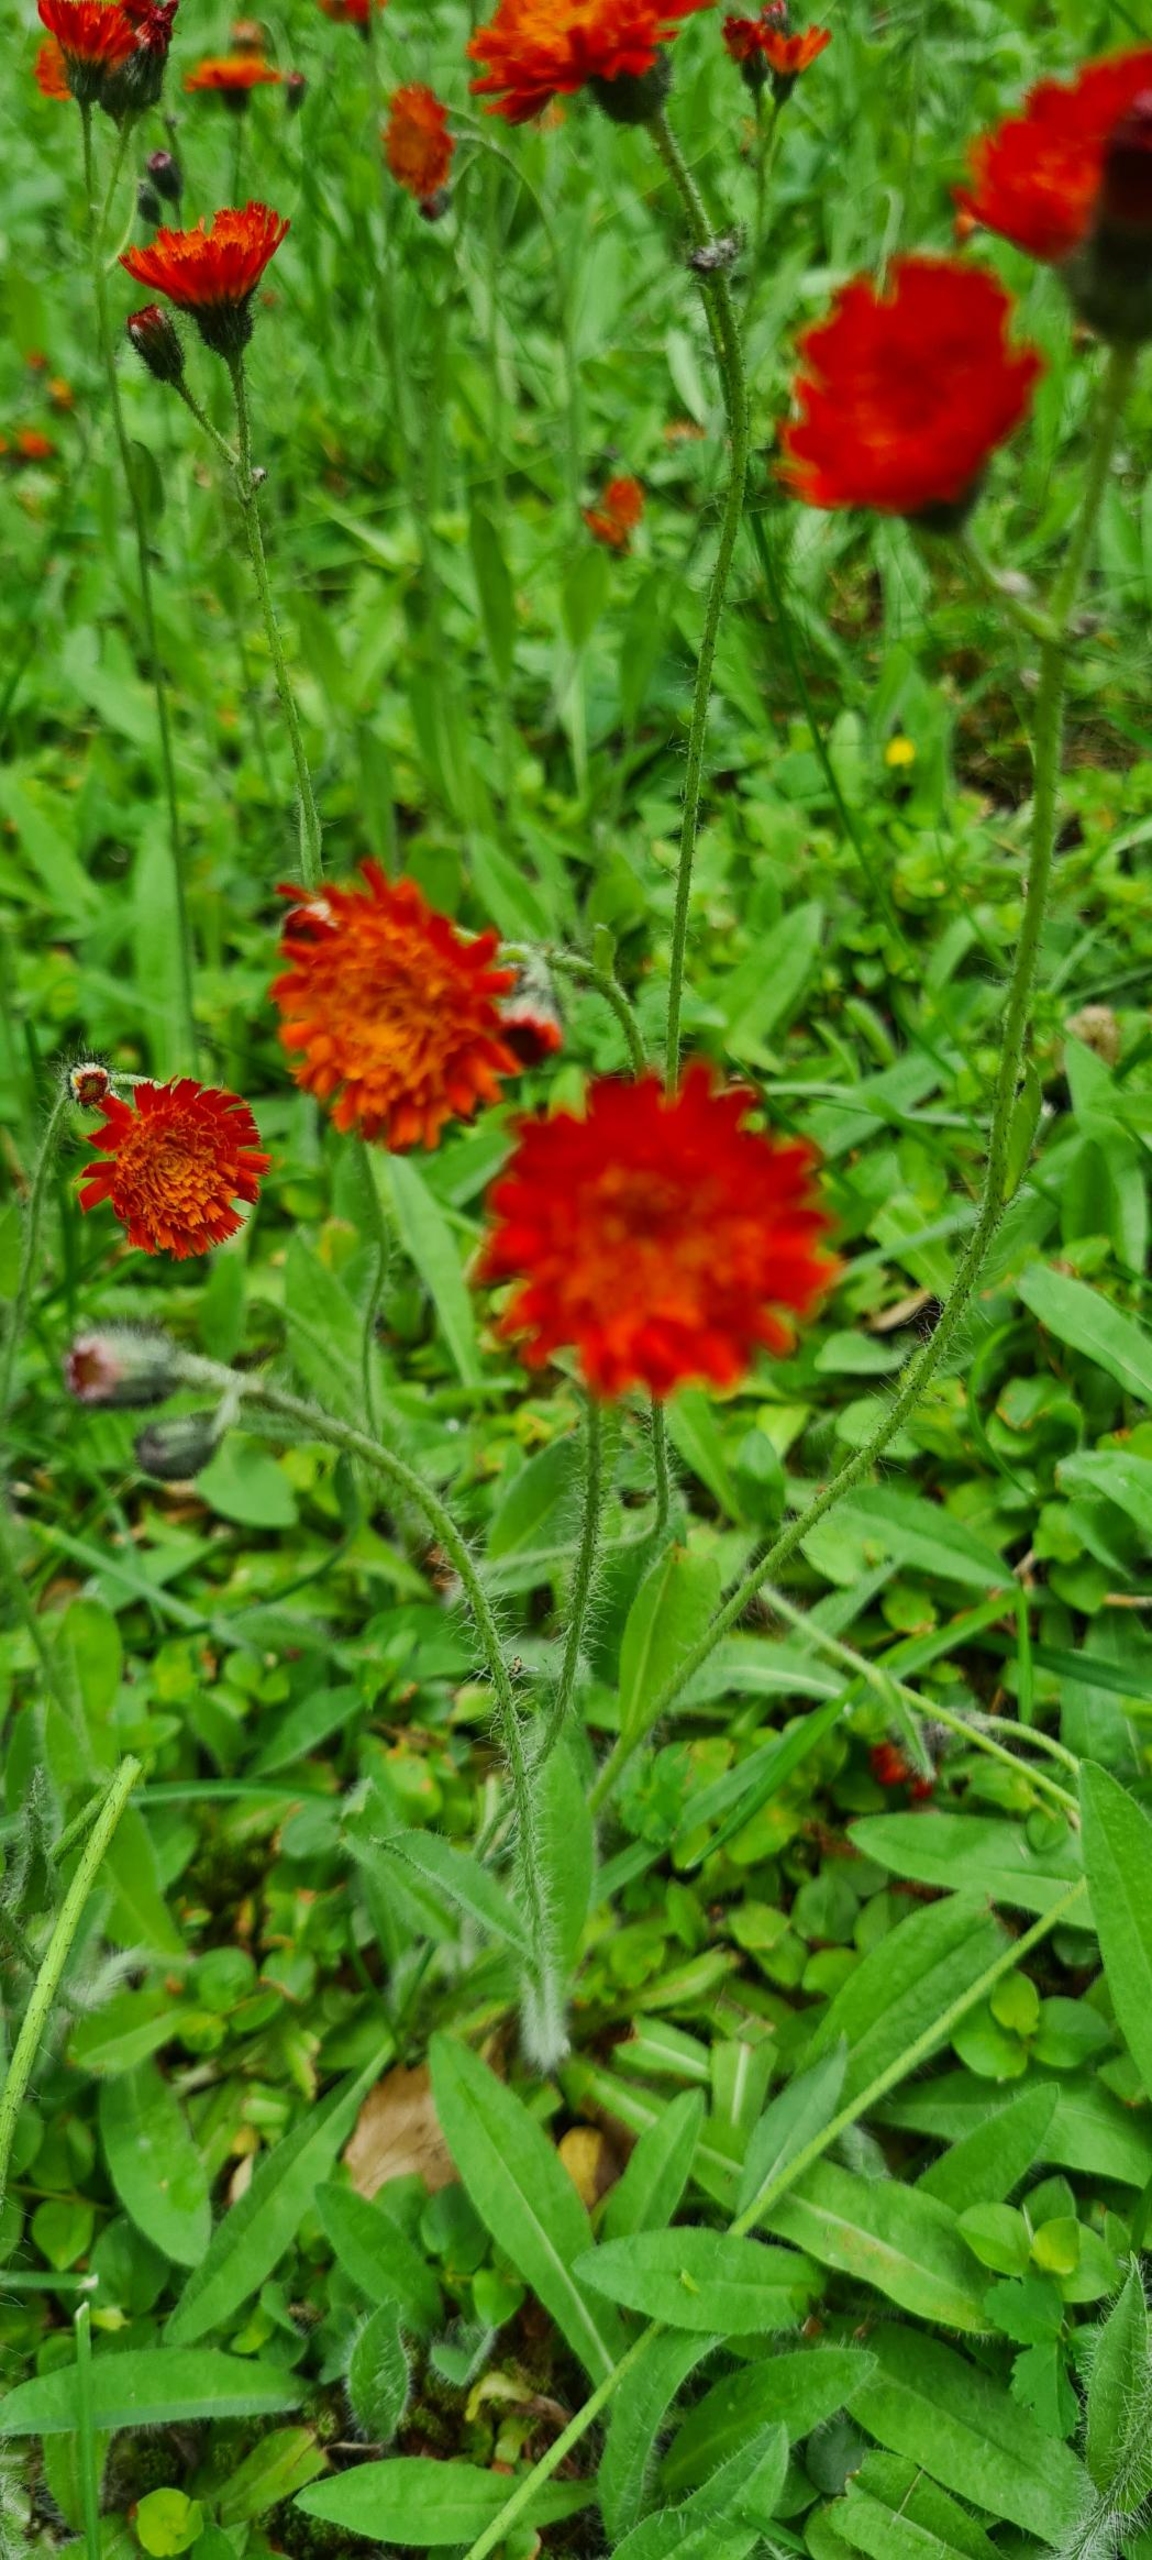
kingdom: Plantae
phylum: Tracheophyta
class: Magnoliopsida
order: Asterales
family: Asteraceae
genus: Pilosella
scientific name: Pilosella aurantiaca
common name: Pomerans-høgeurt
